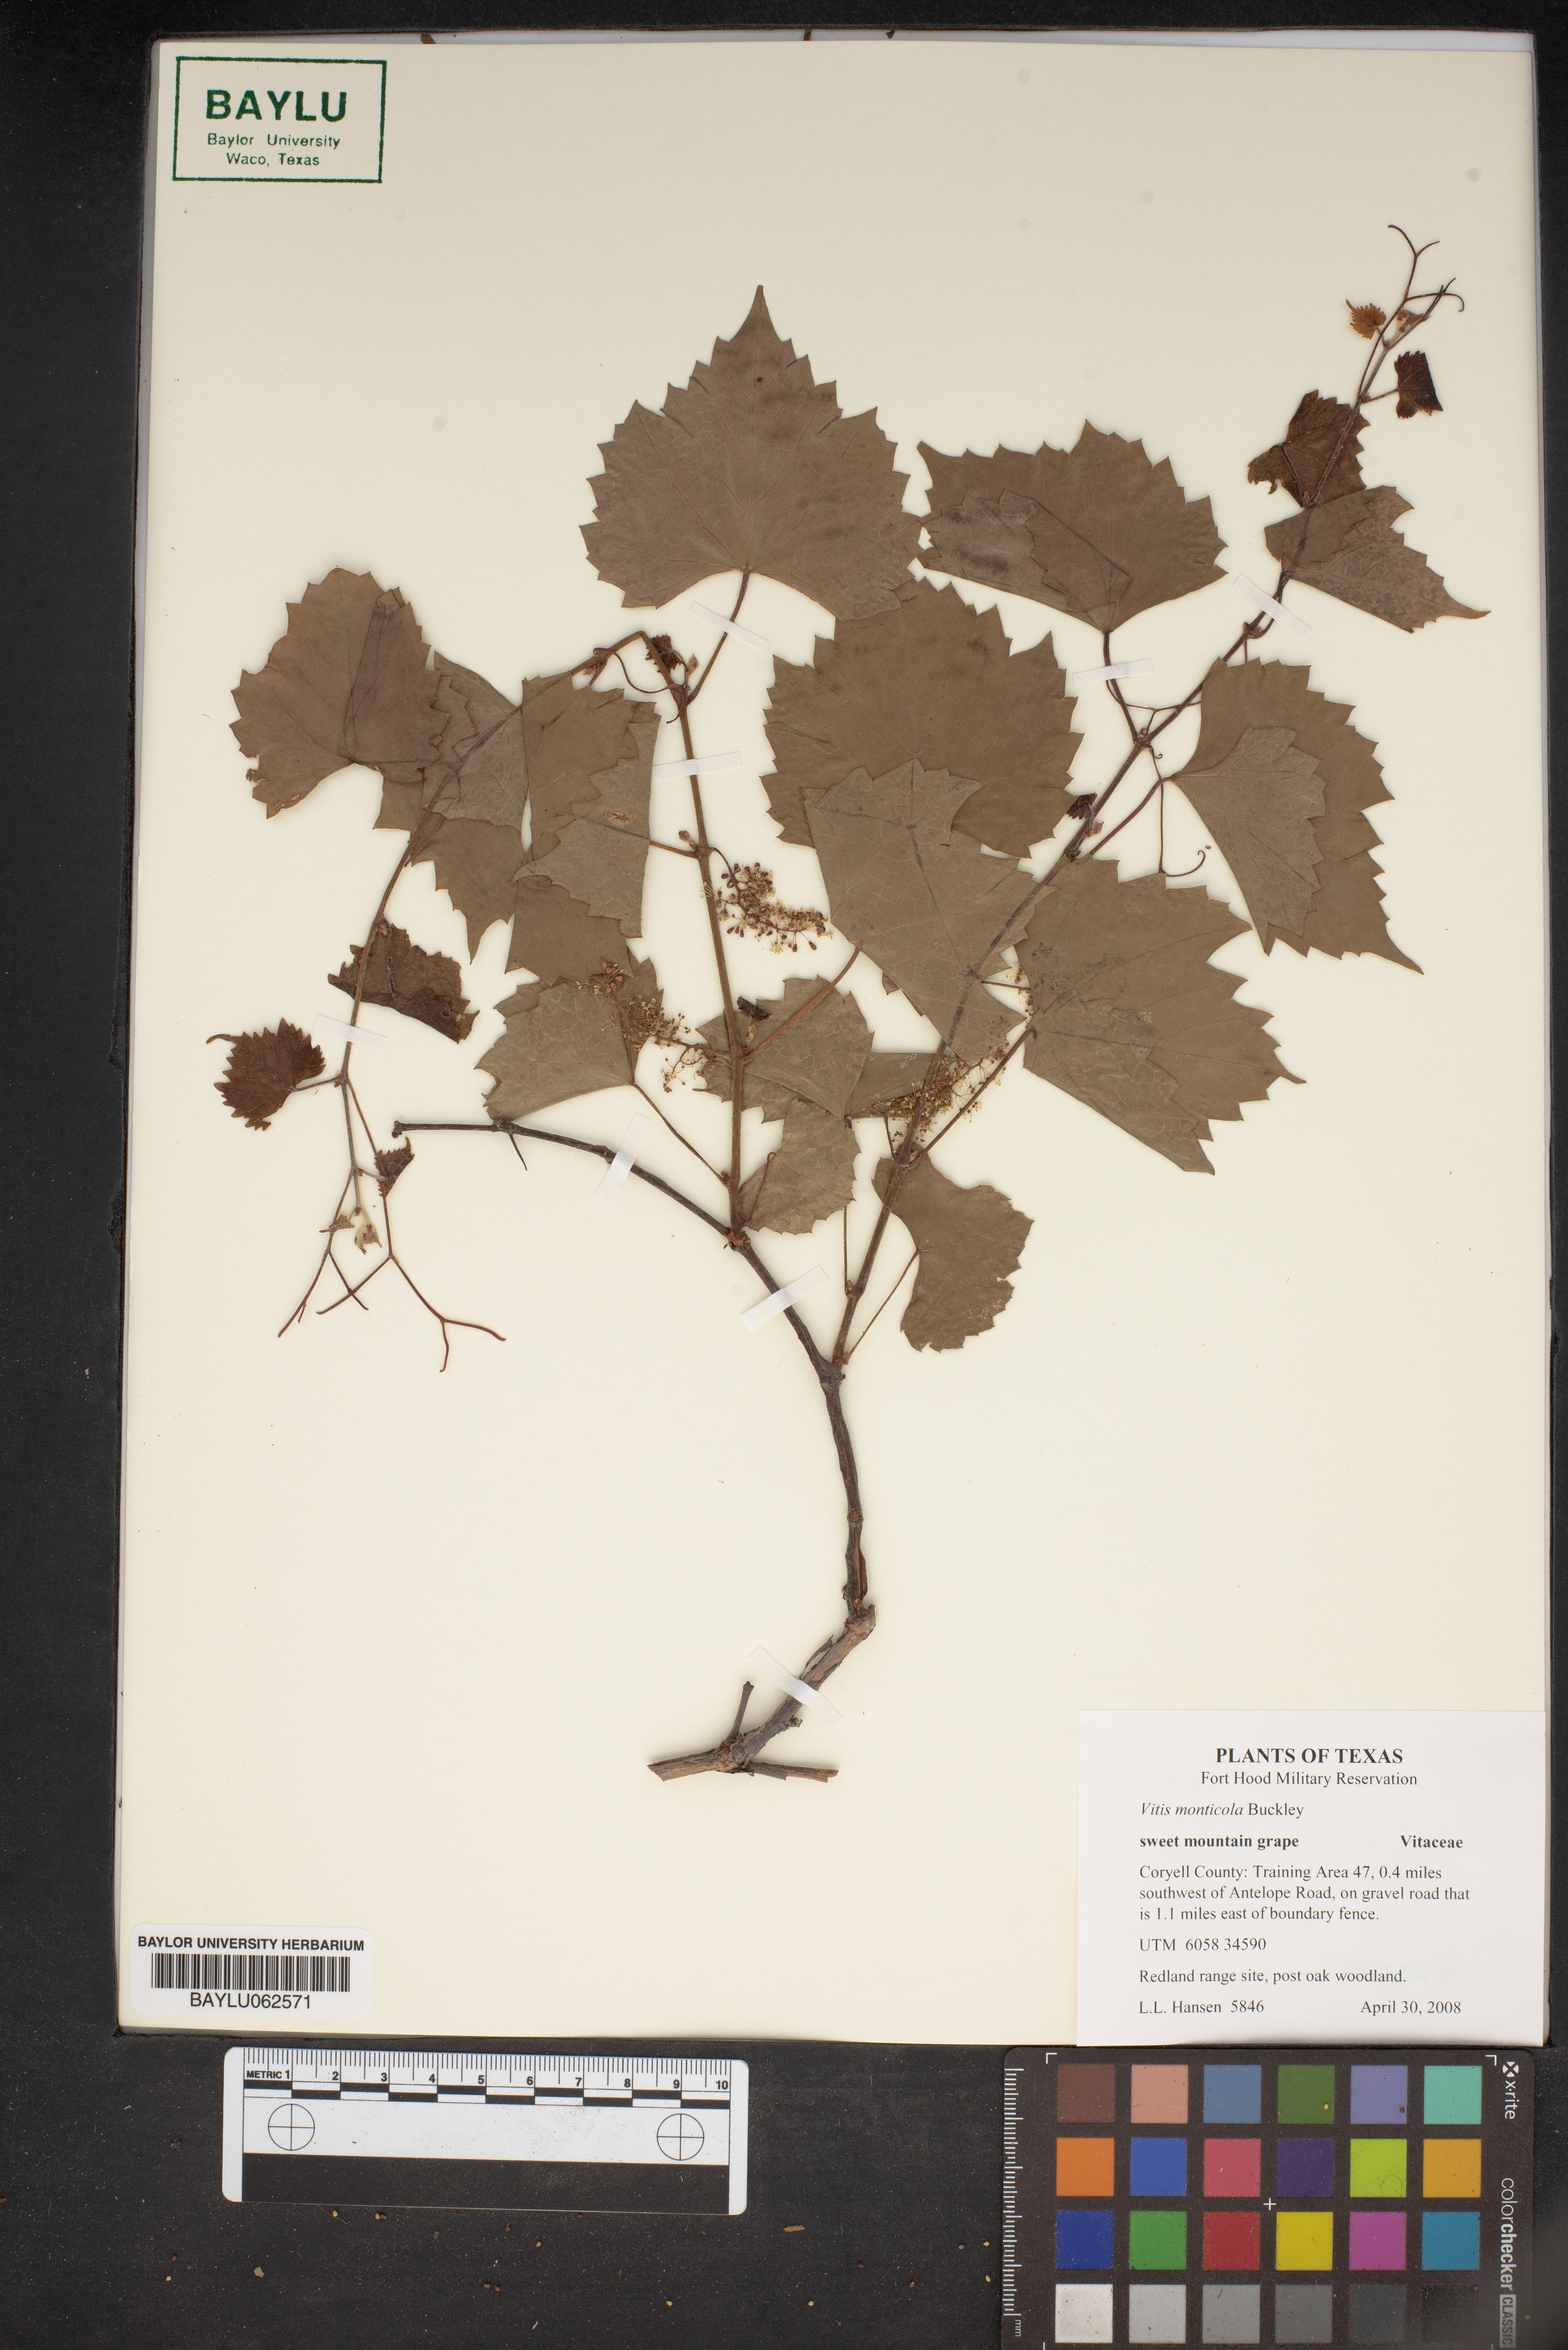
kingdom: Plantae
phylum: Tracheophyta
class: Magnoliopsida
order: Vitales
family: Vitaceae
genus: Vitis
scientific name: Vitis monticola
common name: Mountain grape
